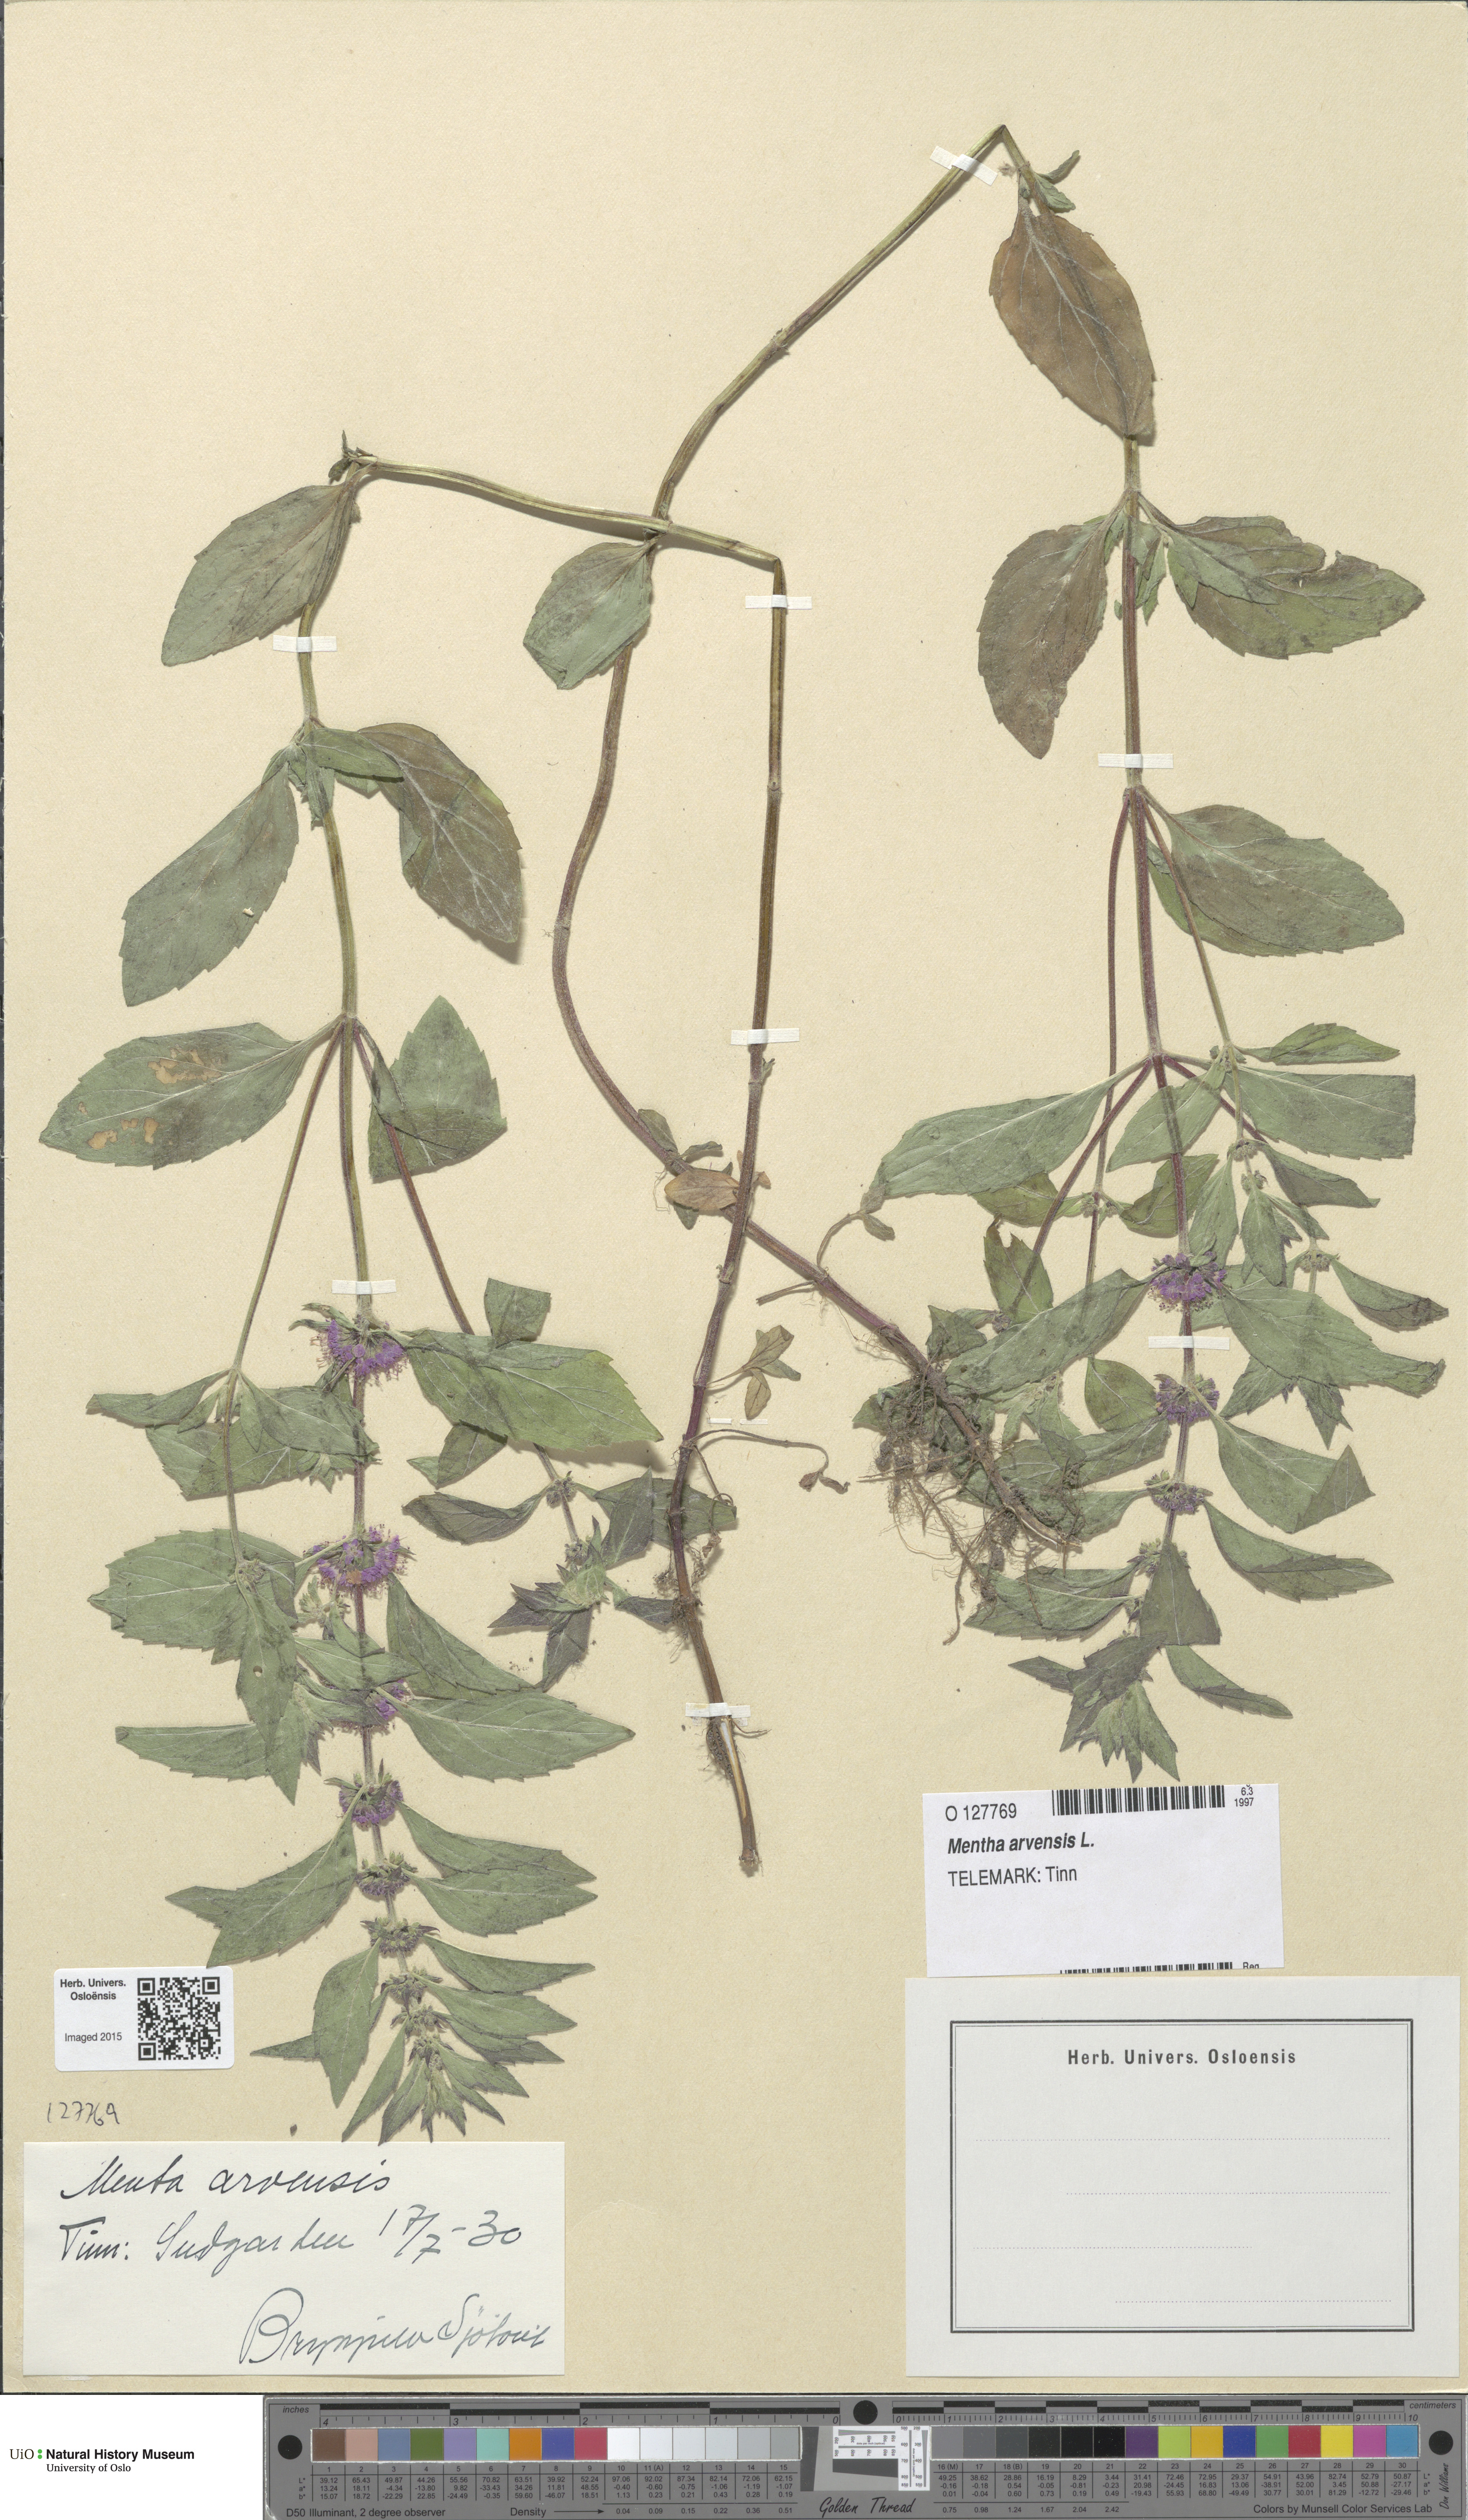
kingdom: Plantae
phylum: Tracheophyta
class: Magnoliopsida
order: Lamiales
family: Lamiaceae
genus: Mentha
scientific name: Mentha arvensis
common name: Corn mint
